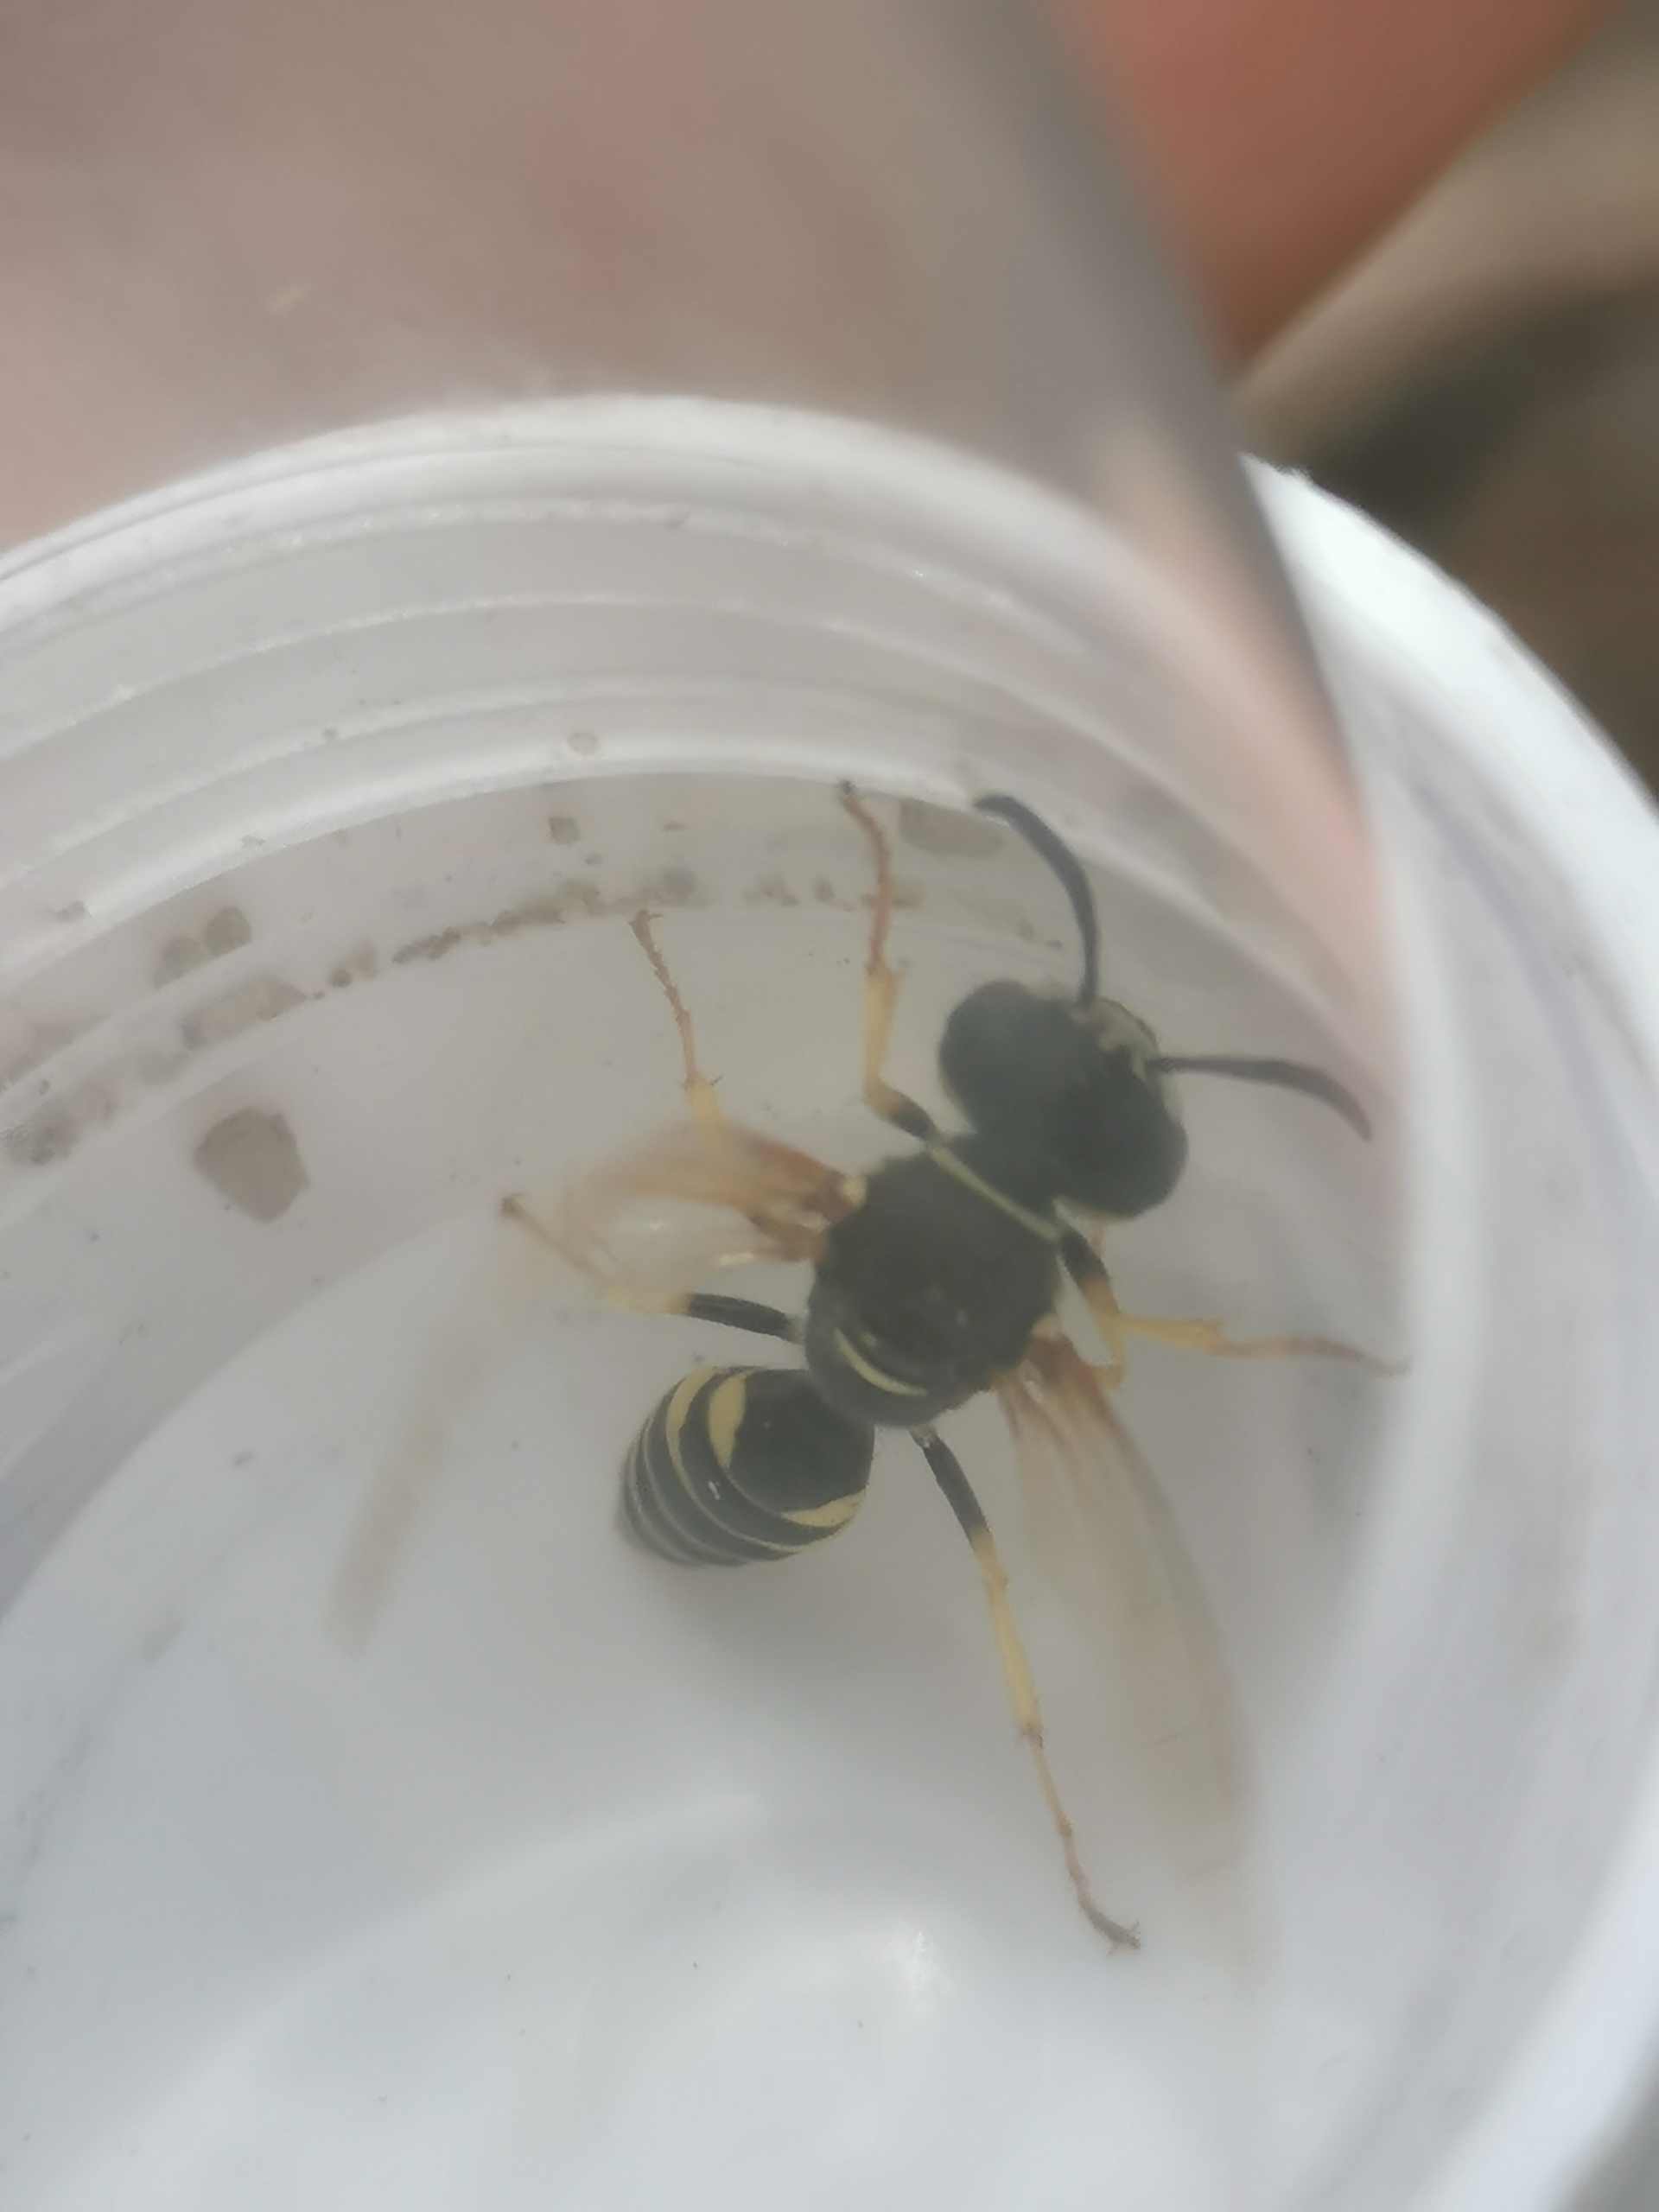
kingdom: Animalia
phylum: Arthropoda
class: Insecta
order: Hymenoptera
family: Crabronidae
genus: Philanthus
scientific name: Philanthus triangulum
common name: Biulv
